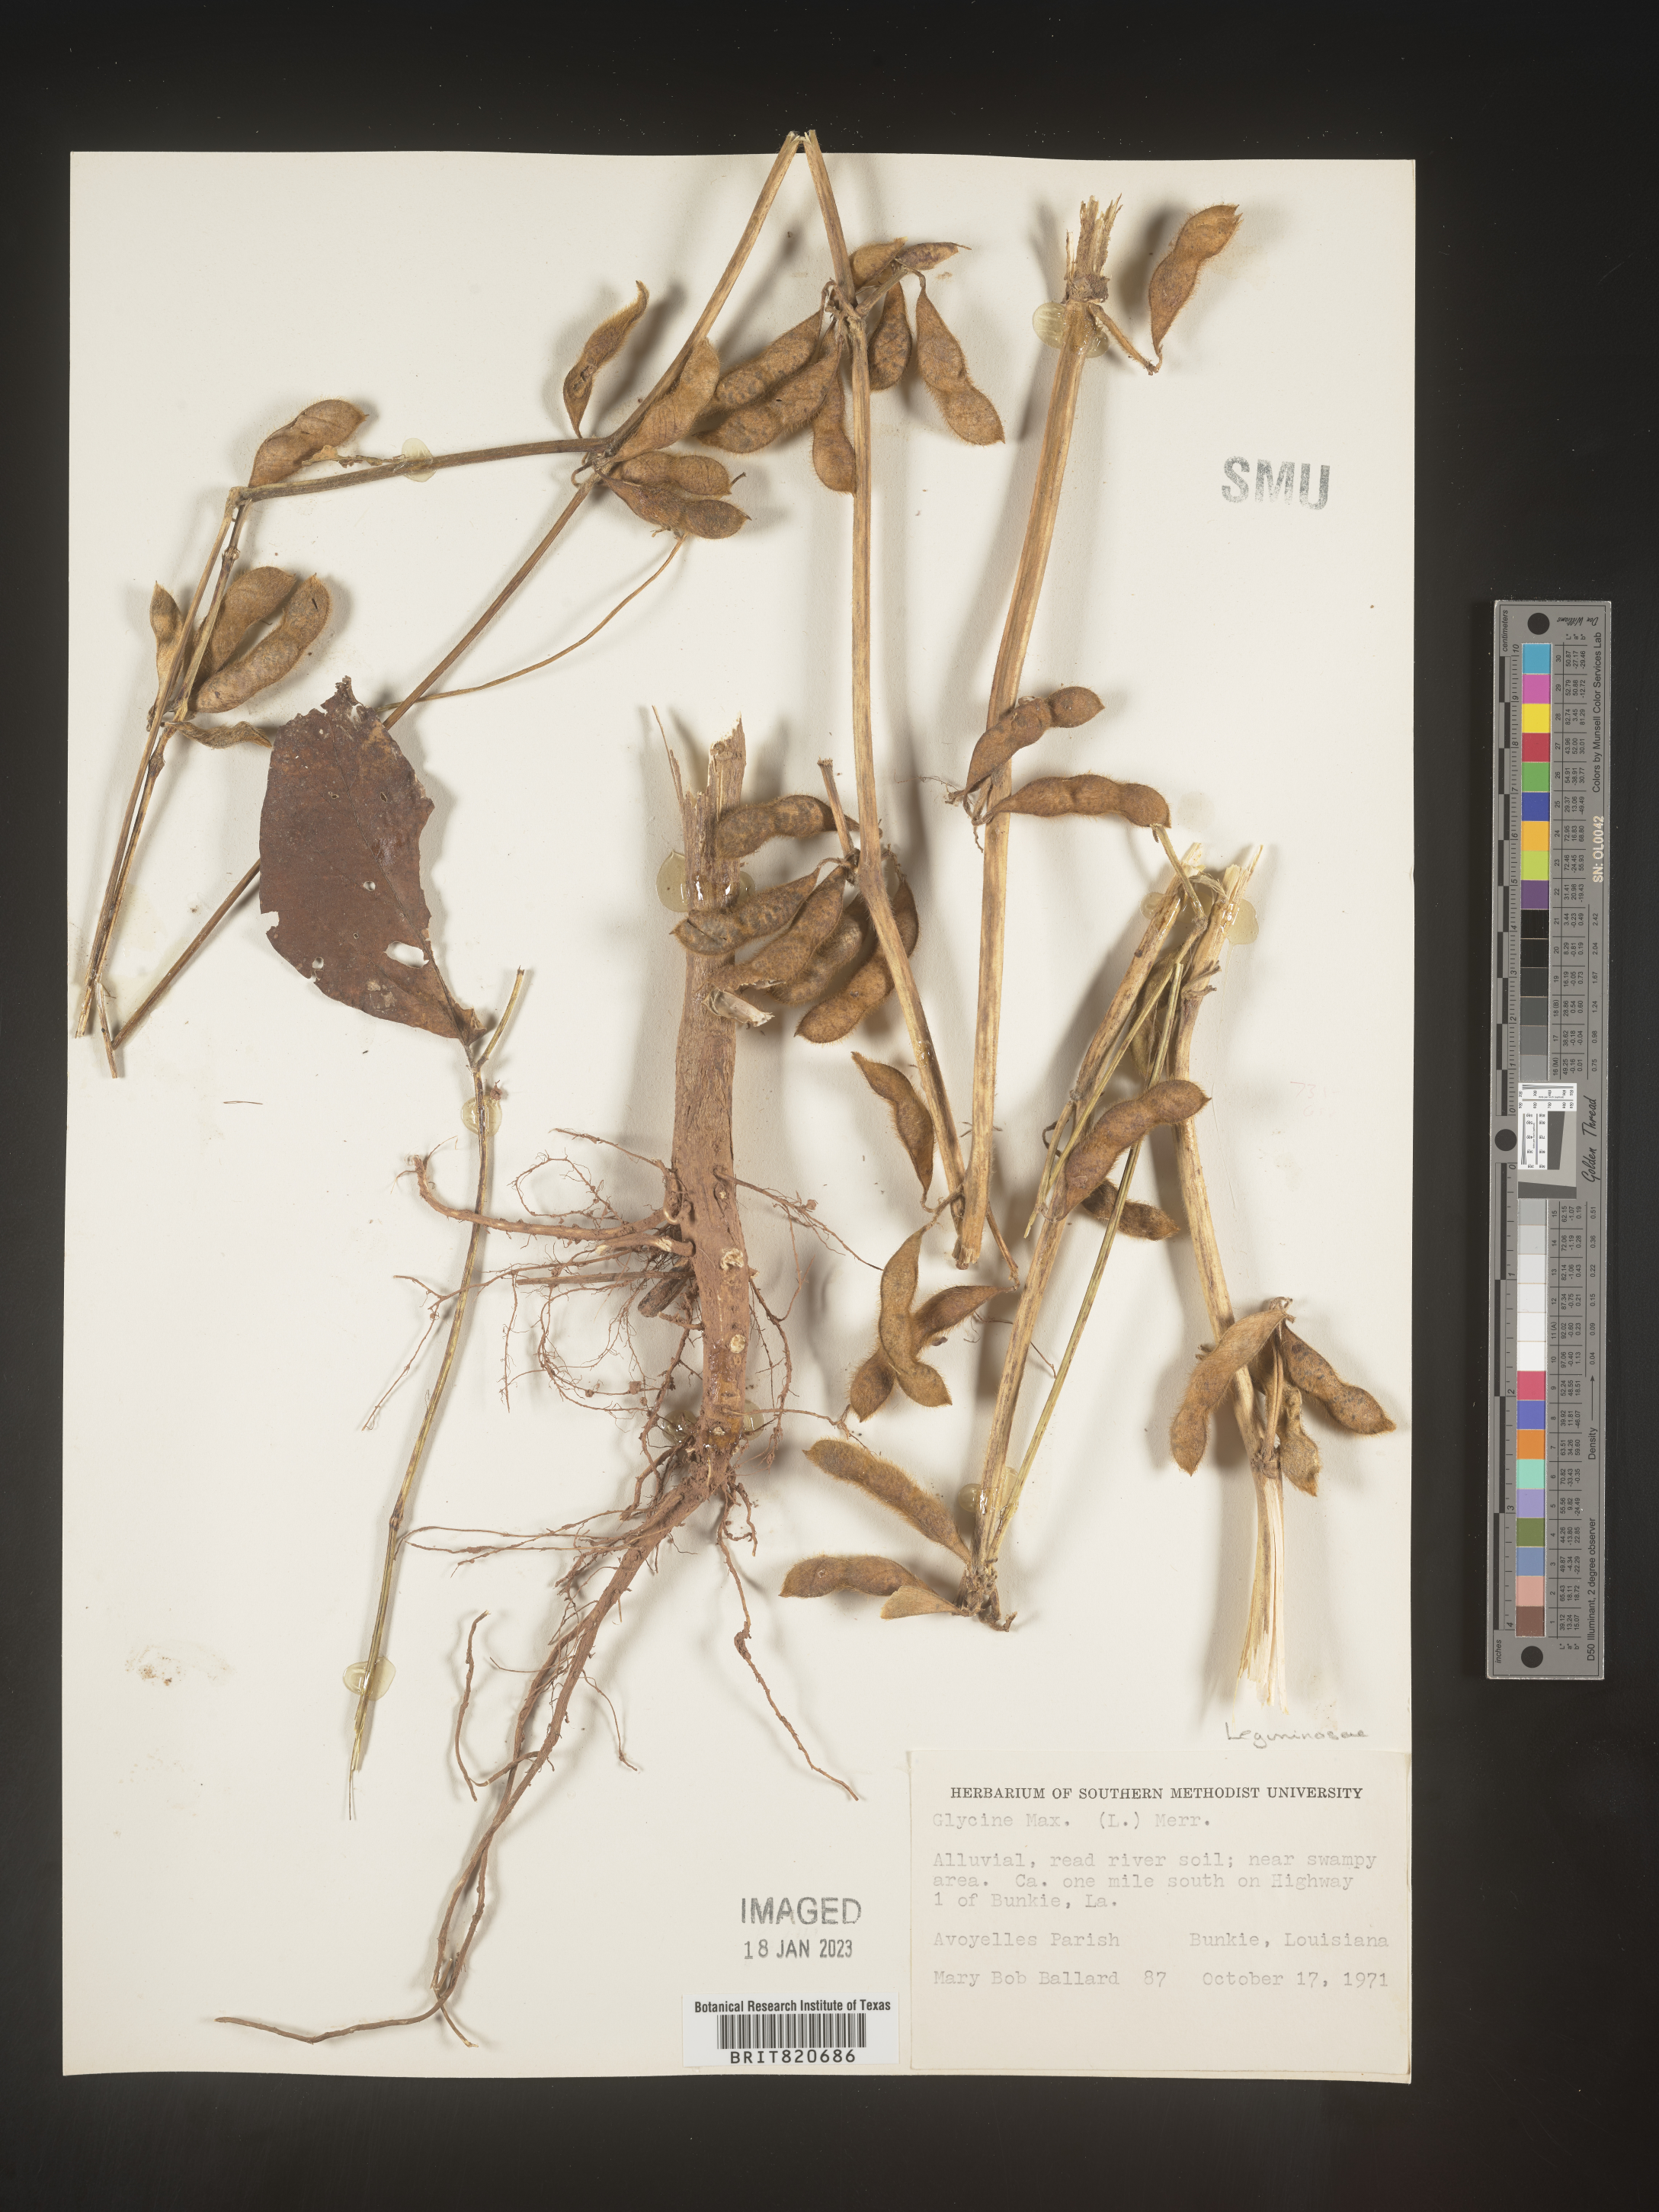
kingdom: Plantae
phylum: Tracheophyta
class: Magnoliopsida
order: Fabales
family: Fabaceae
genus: Glycine
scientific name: Glycine
